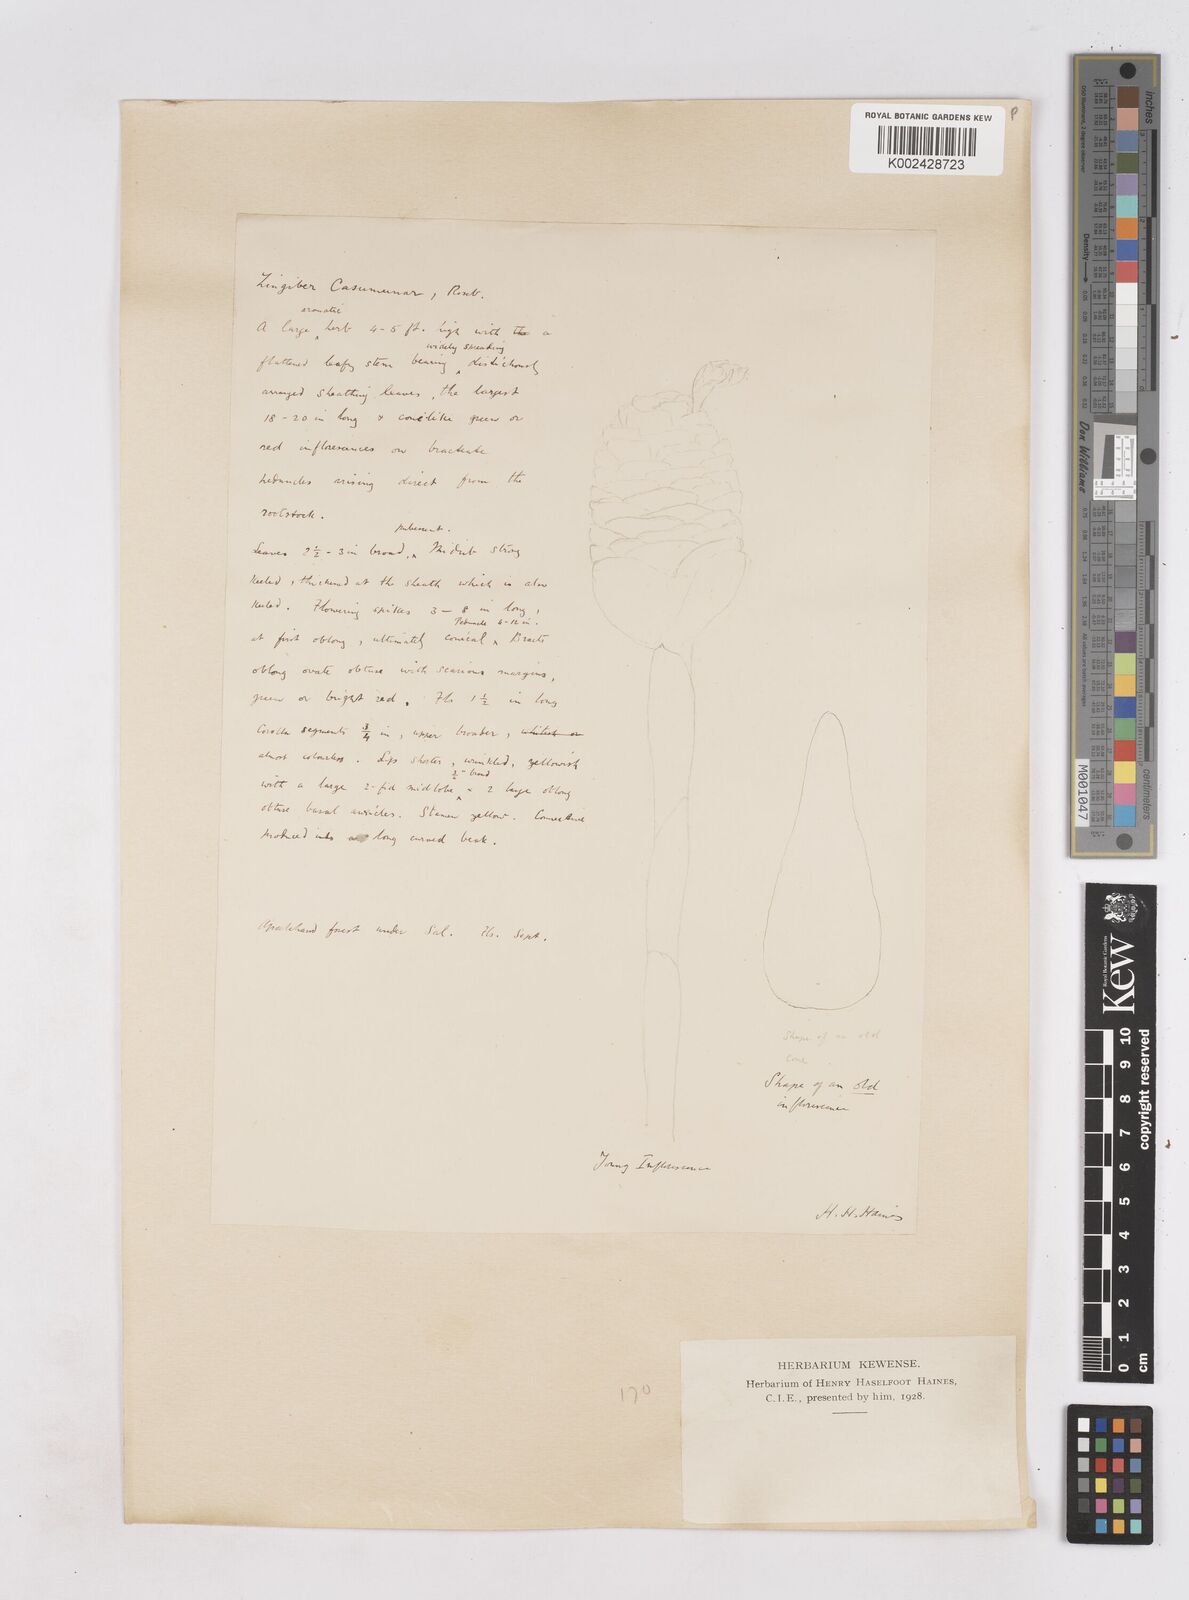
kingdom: Plantae
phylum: Tracheophyta
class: Liliopsida
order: Zingiberales
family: Zingiberaceae
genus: Zingiber
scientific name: Zingiber montanum
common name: Bengal ginger
